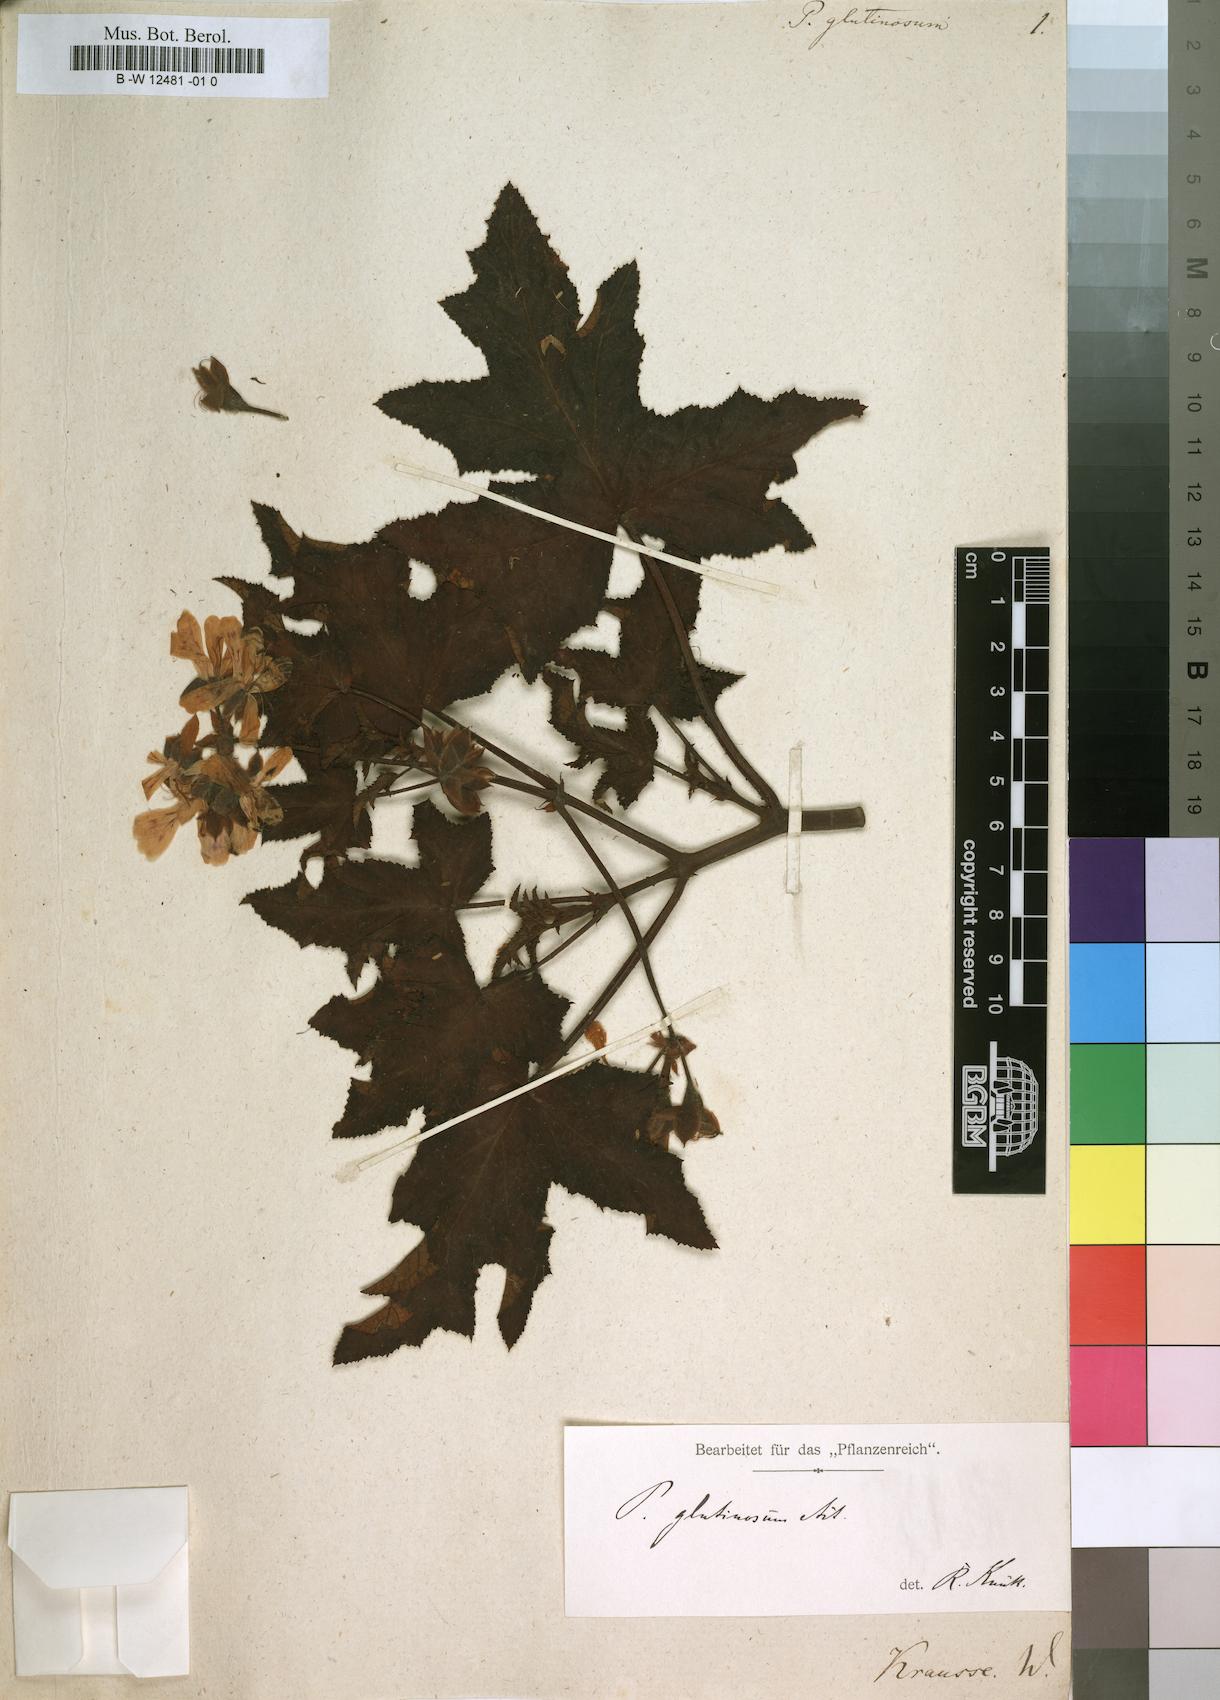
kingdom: Plantae
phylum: Tracheophyta
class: Magnoliopsida
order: Geraniales
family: Geraniaceae
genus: Pelargonium
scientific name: Pelargonium glutinosum
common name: Pheasant-foot geranium
